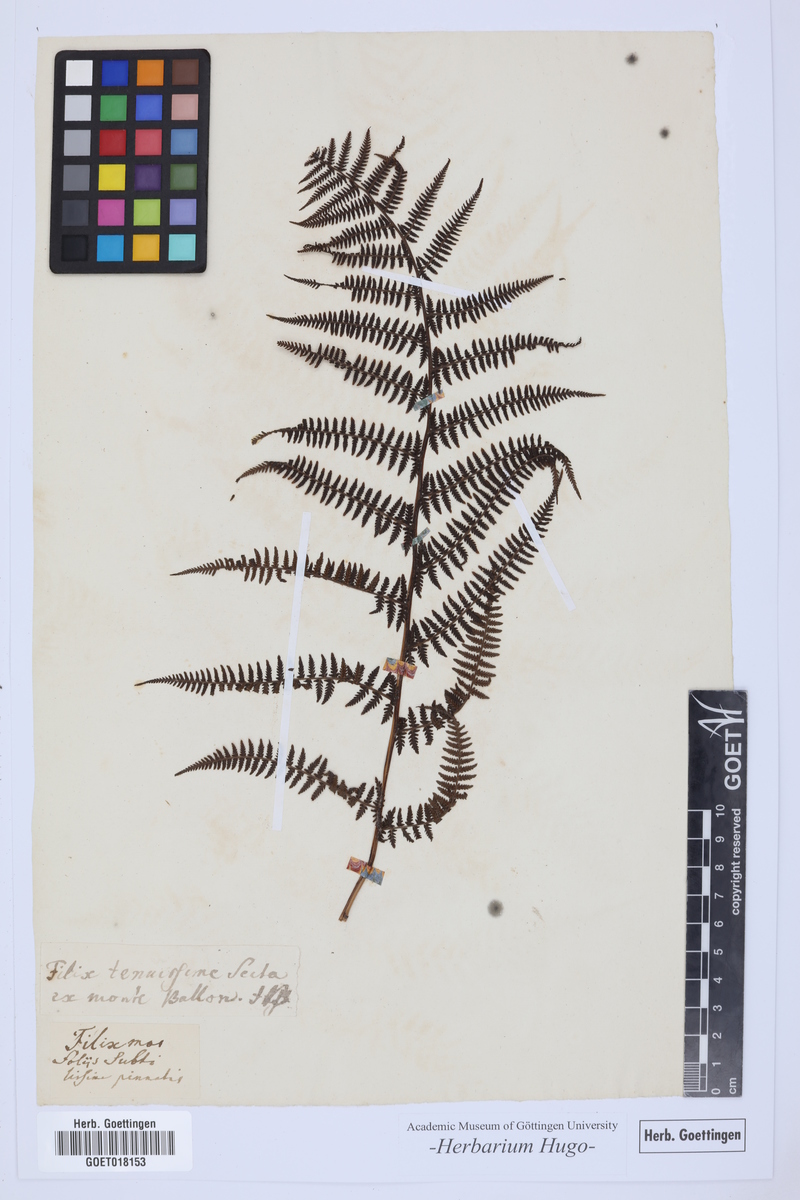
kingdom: Plantae
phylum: Tracheophyta
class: Polypodiopsida
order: Polypodiales
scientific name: Polypodiales
